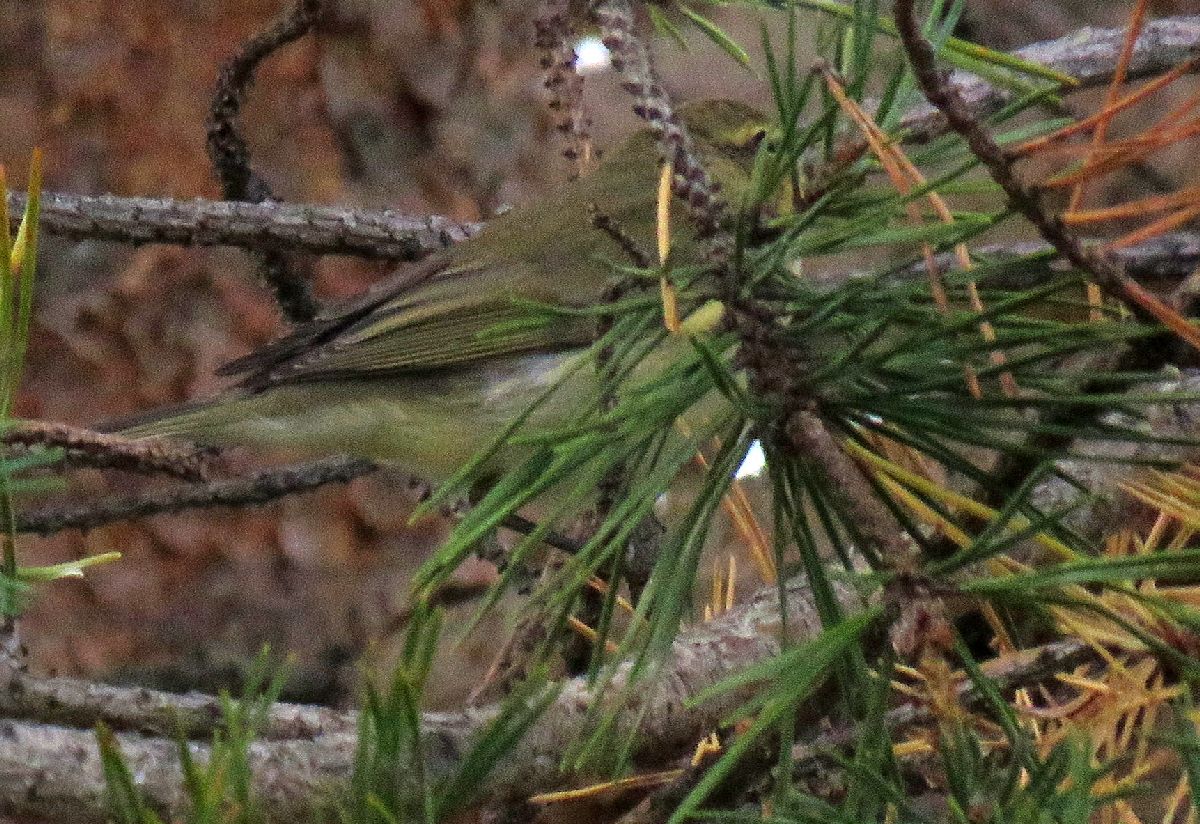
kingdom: Animalia
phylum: Chordata
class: Aves
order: Passeriformes
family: Phylloscopidae
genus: Phylloscopus
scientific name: Phylloscopus trochilus
